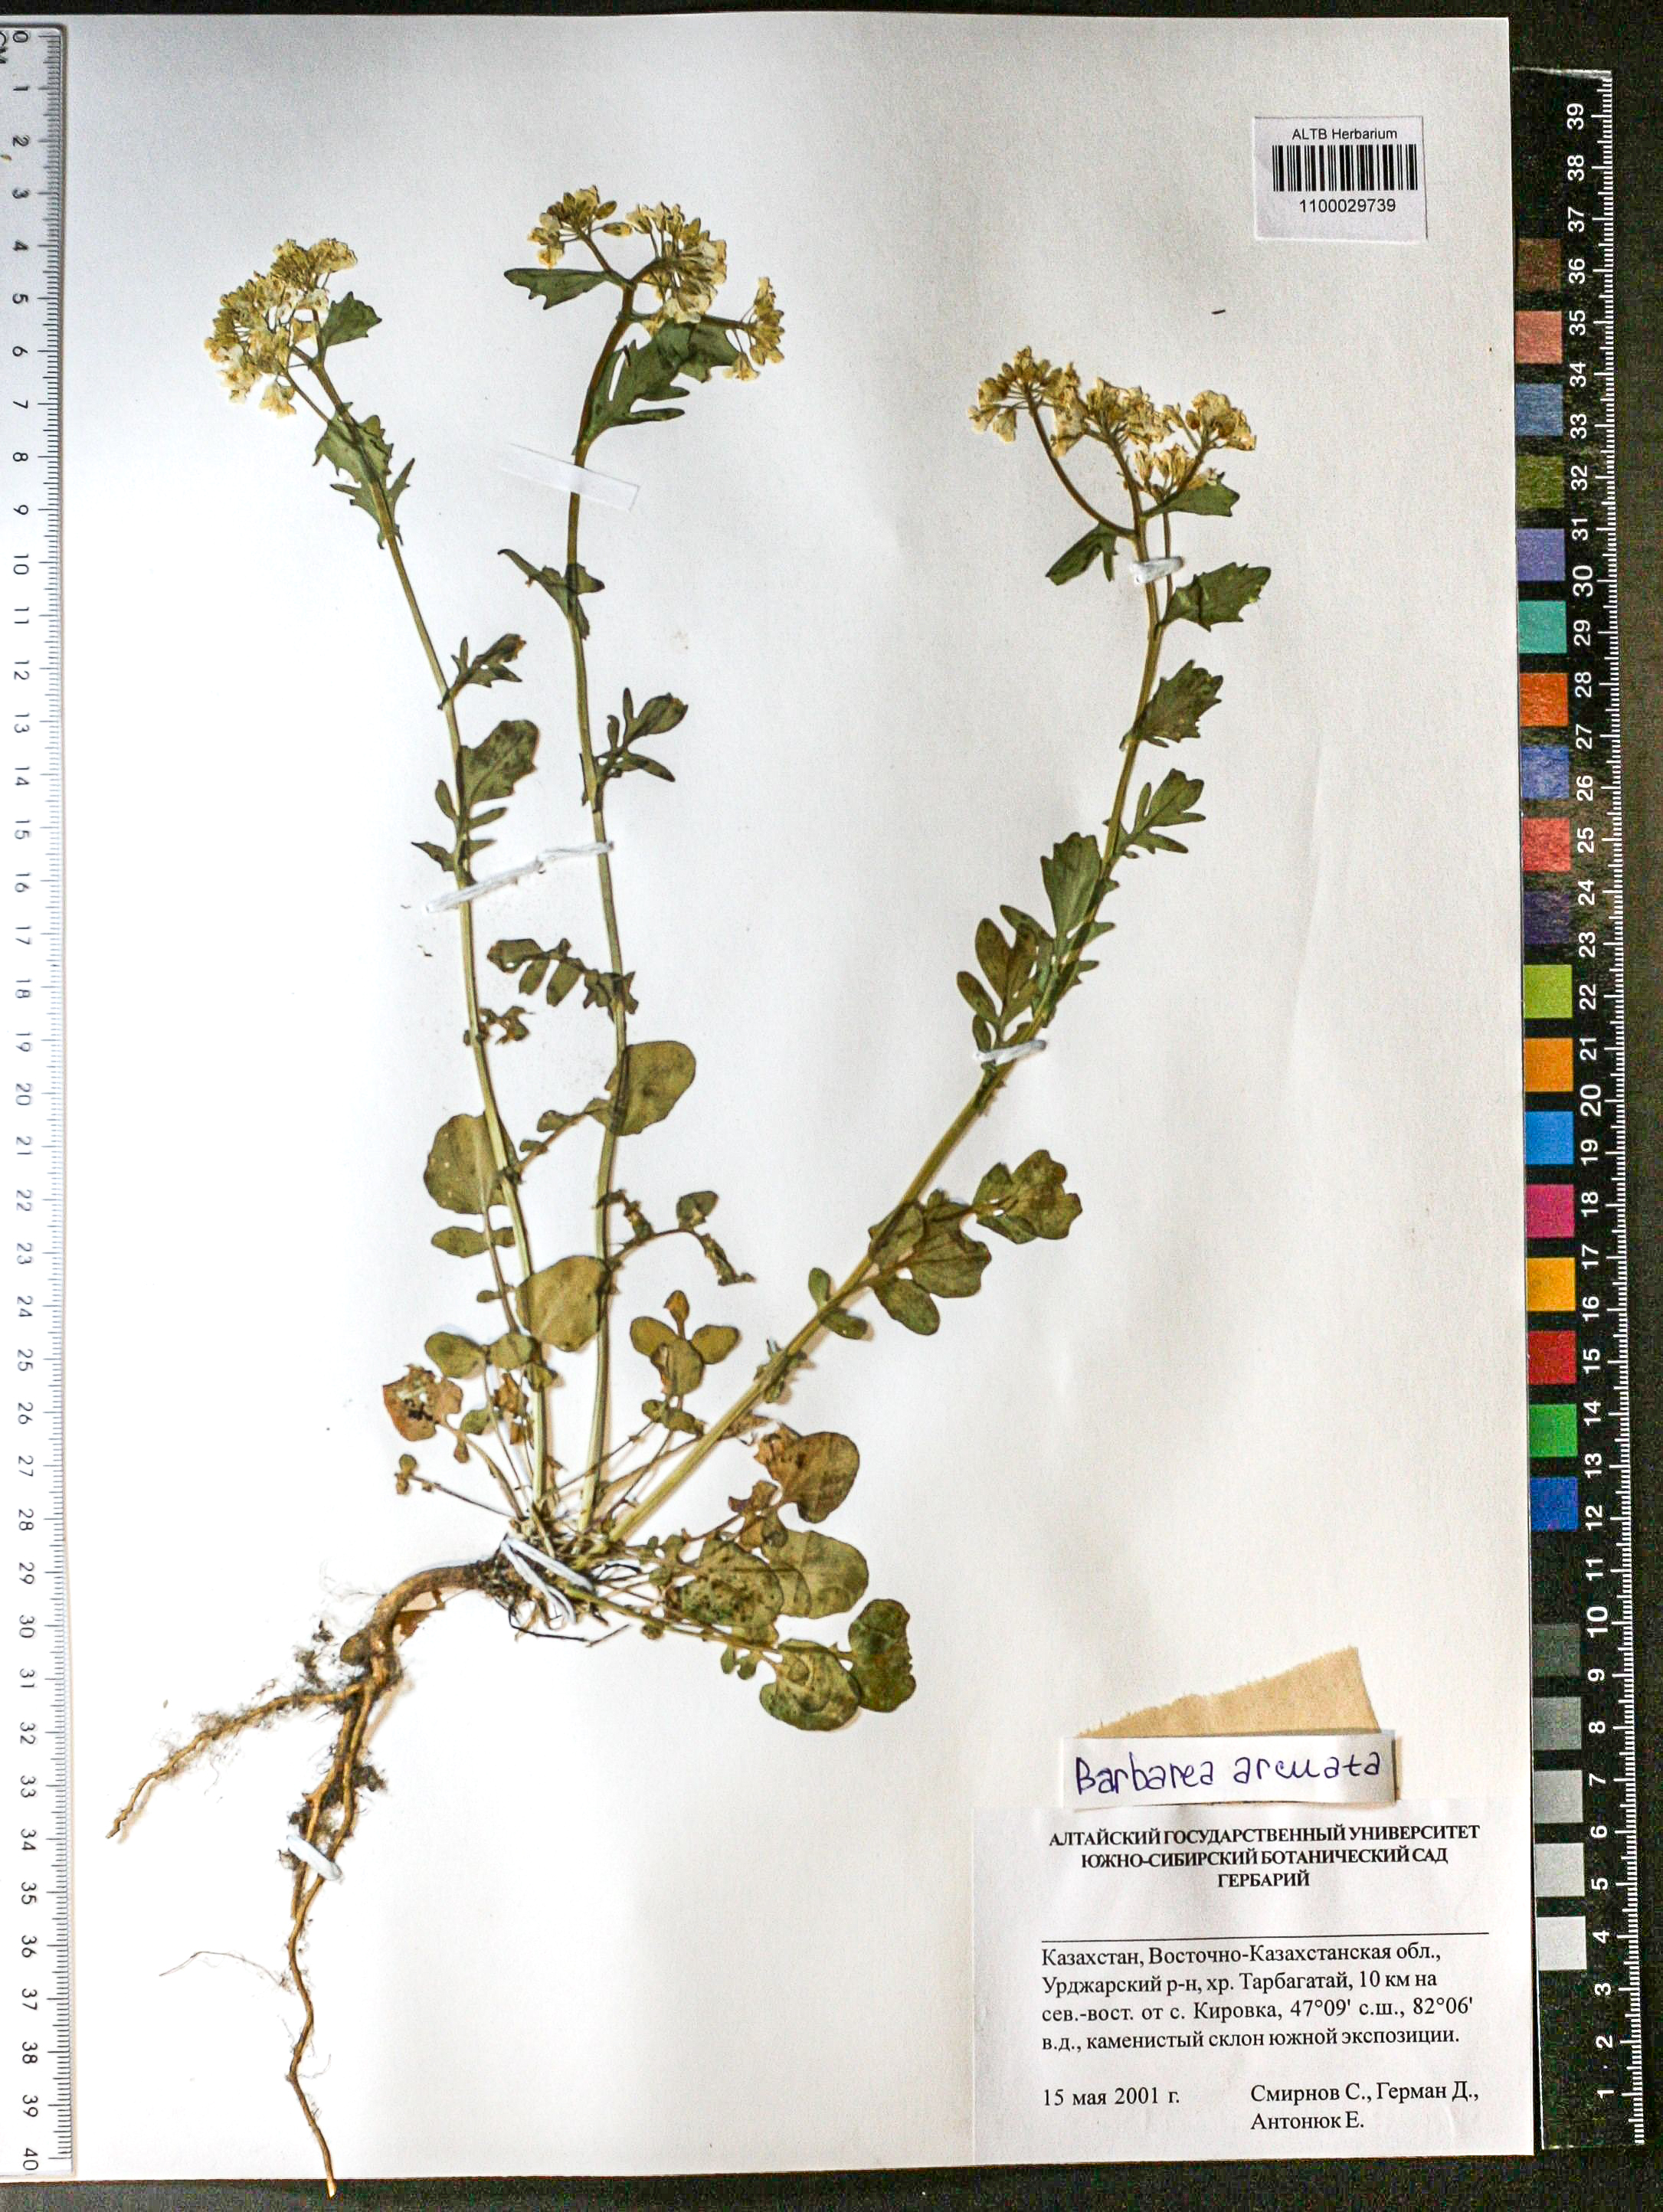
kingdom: Plantae
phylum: Tracheophyta
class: Magnoliopsida
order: Brassicales
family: Brassicaceae
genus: Barbarea
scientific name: Barbarea vulgaris
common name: Cressy-greens
